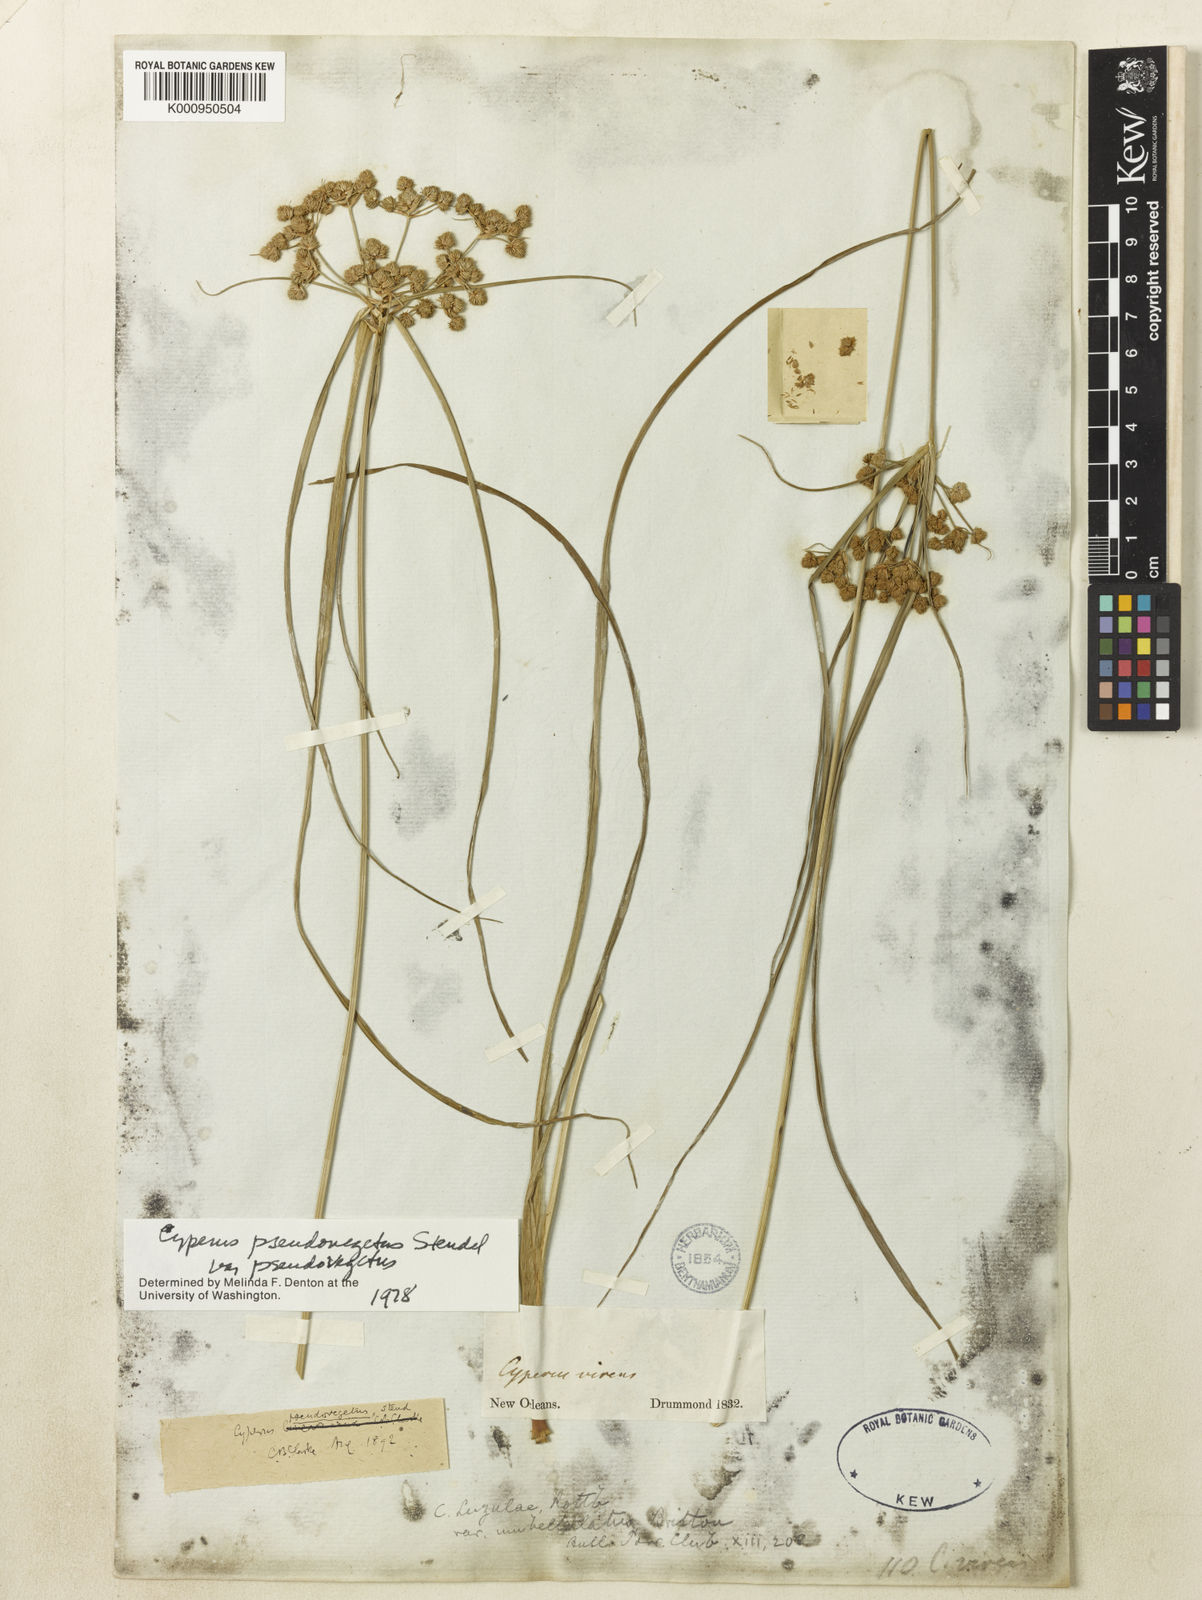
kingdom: Plantae
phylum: Tracheophyta
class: Liliopsida
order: Poales
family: Cyperaceae
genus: Cyperus
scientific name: Cyperus pseudovegetus
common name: Marsh flat sedge
